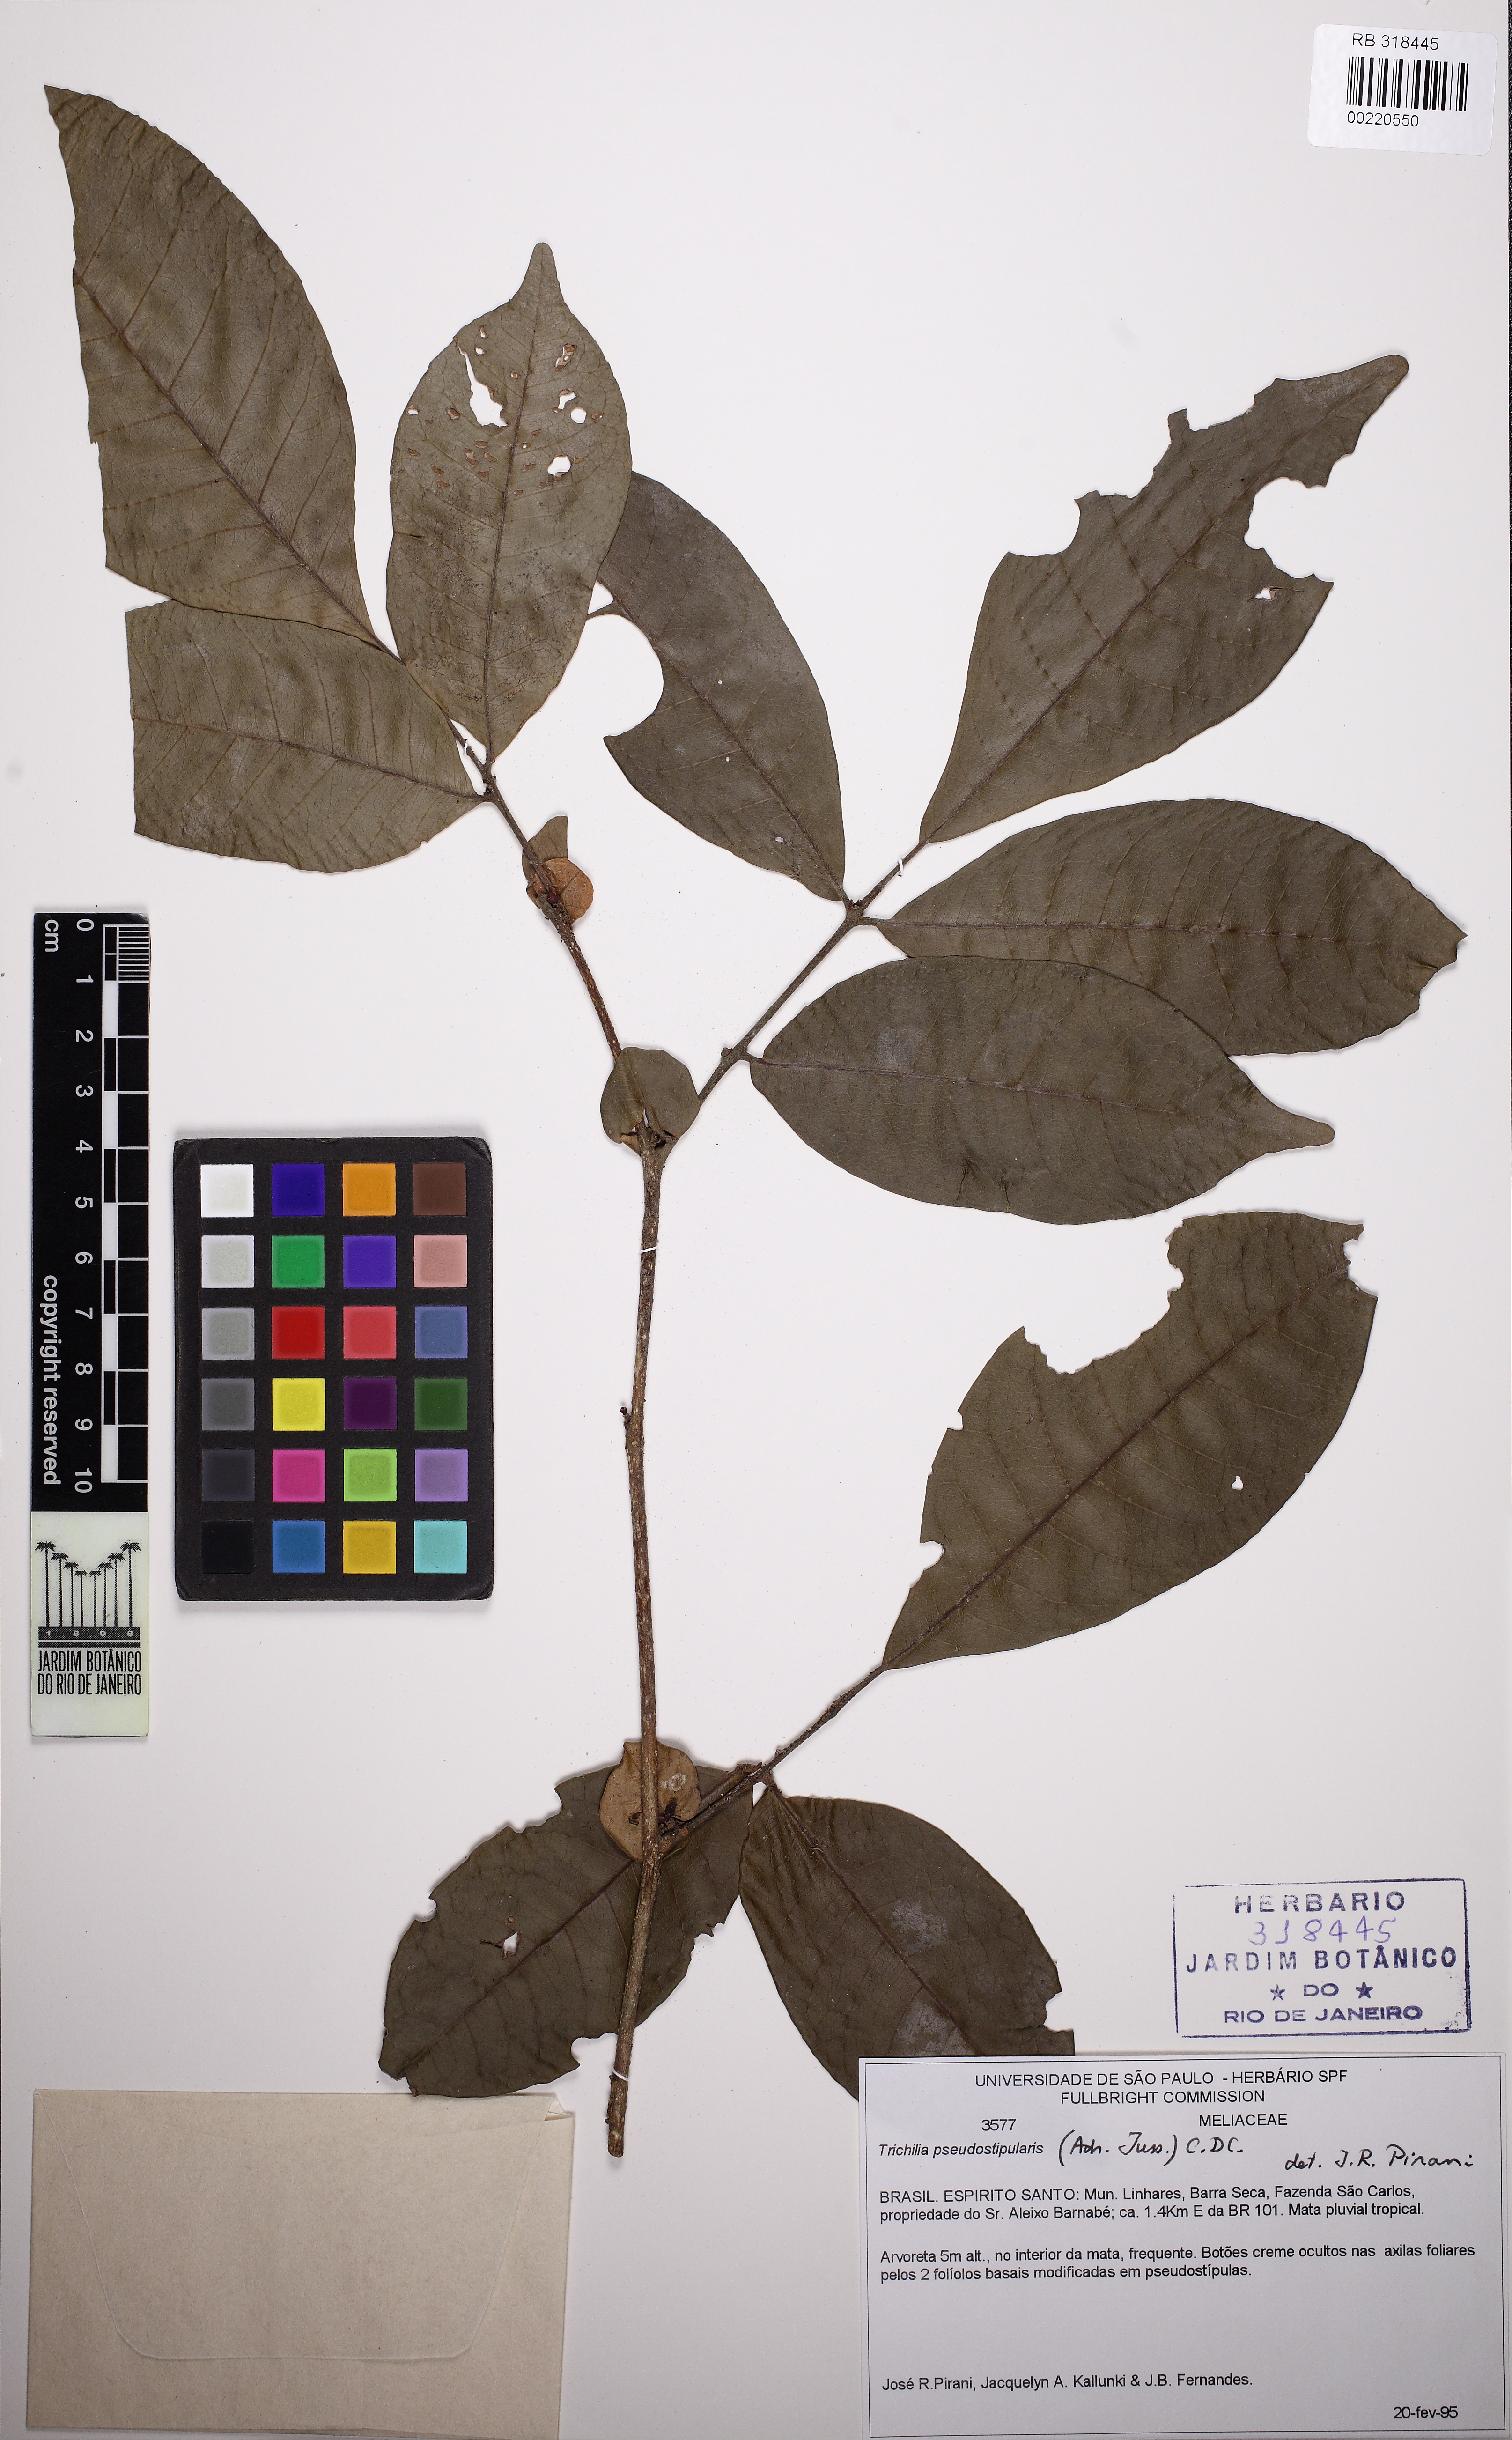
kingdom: Plantae
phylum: Tracheophyta
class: Magnoliopsida
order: Sapindales
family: Meliaceae
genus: Trichilia
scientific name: Trichilia pseudostipularis
